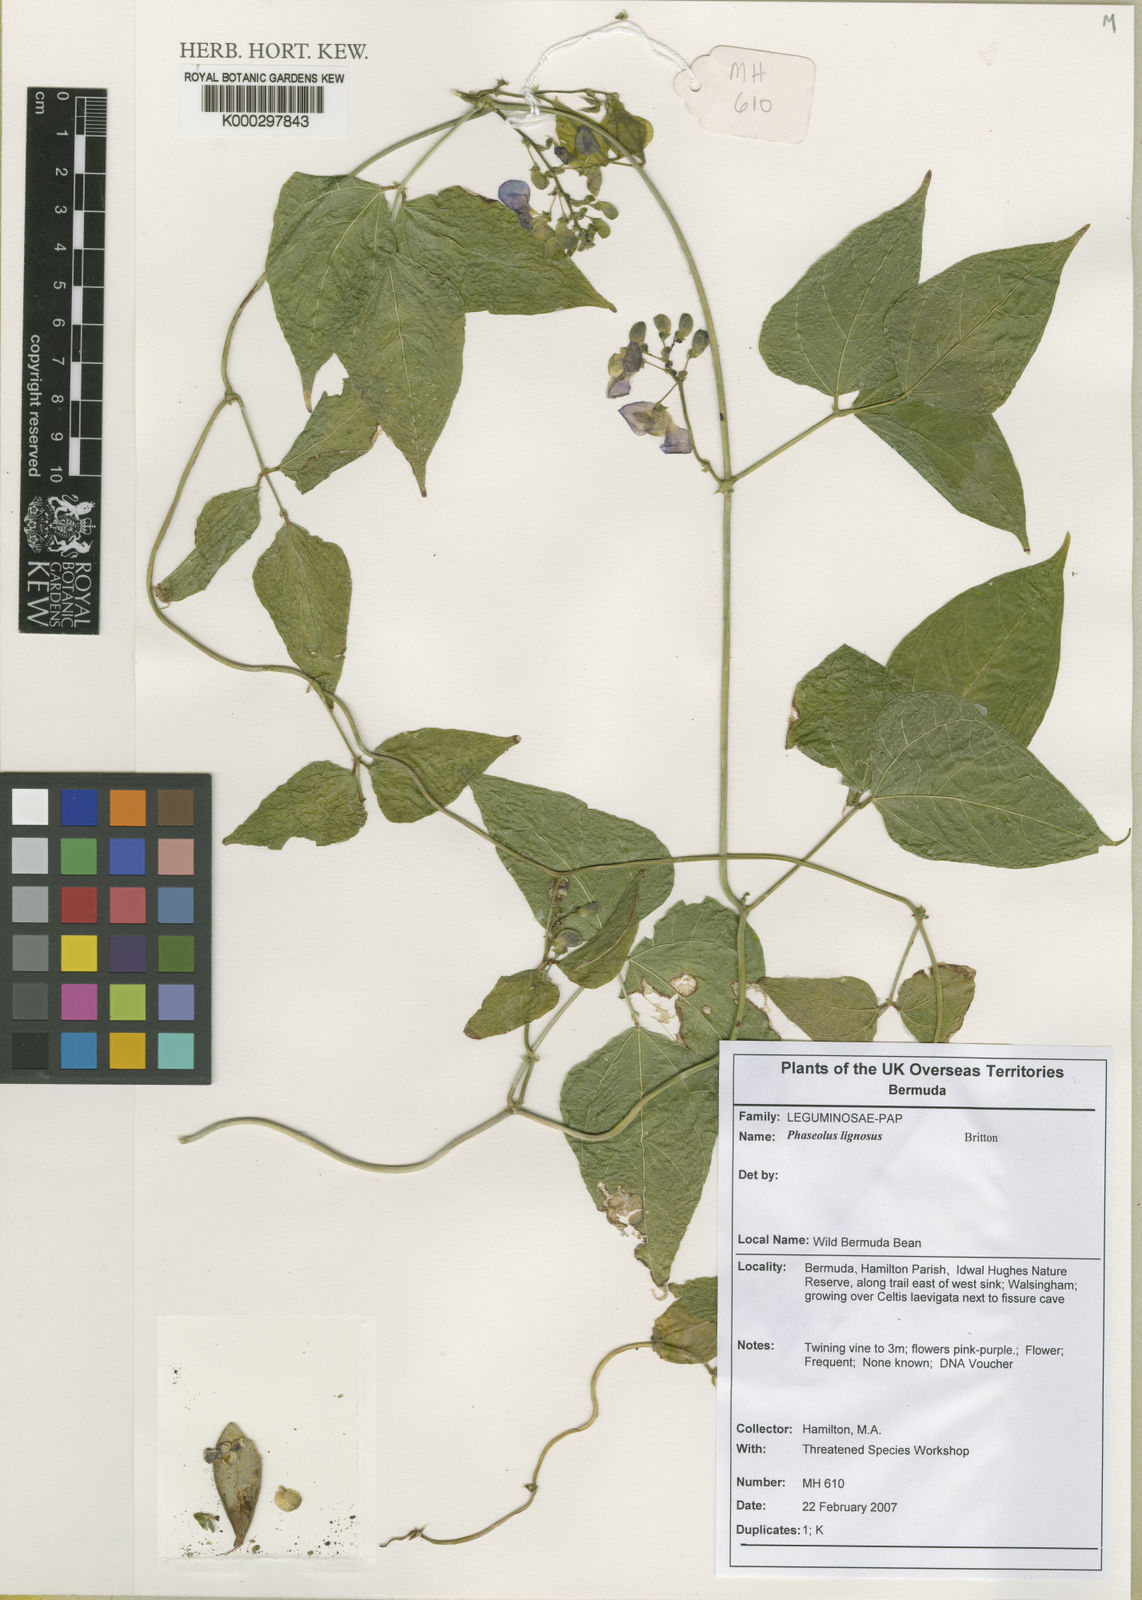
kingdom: Plantae
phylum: Tracheophyta
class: Magnoliopsida
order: Fabales
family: Fabaceae
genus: Phaseolus
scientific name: Phaseolus lignosus
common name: Bermuda bean
